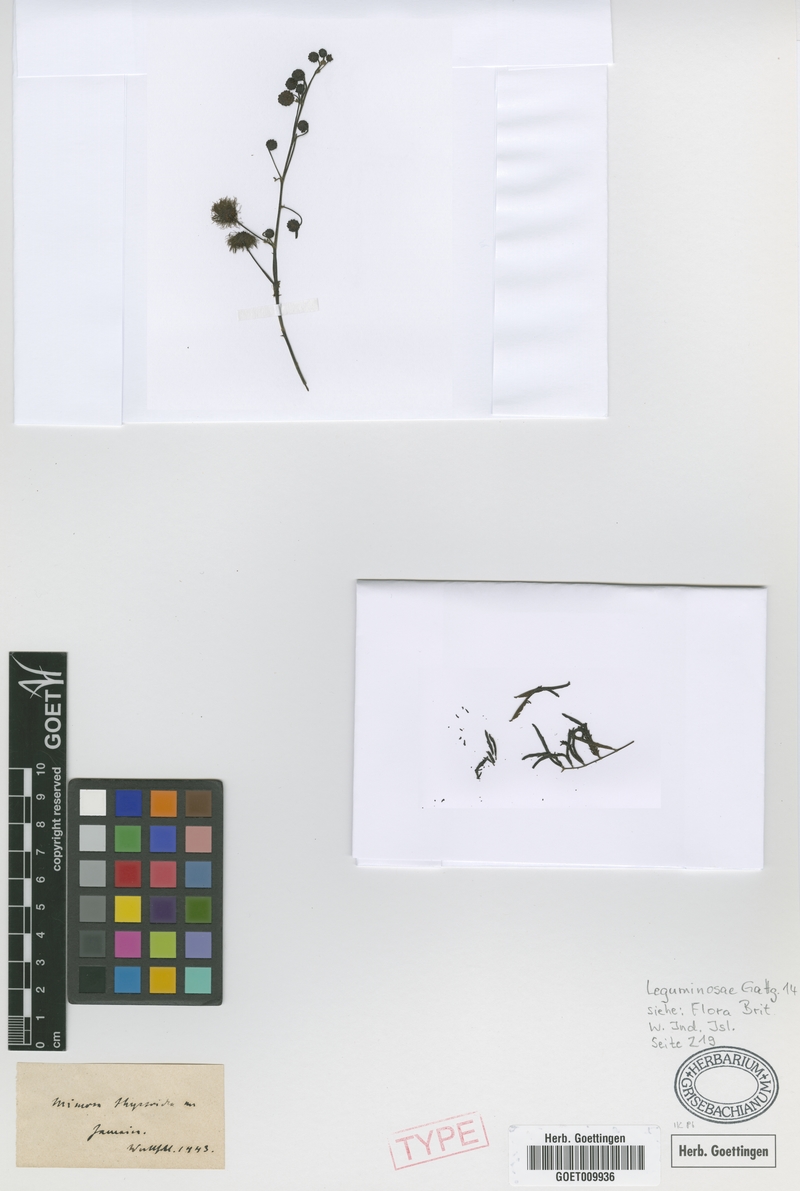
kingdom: Plantae
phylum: Tracheophyta
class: Magnoliopsida
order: Fabales
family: Fabaceae
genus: Mimosa
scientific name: Mimosa bimucronata
